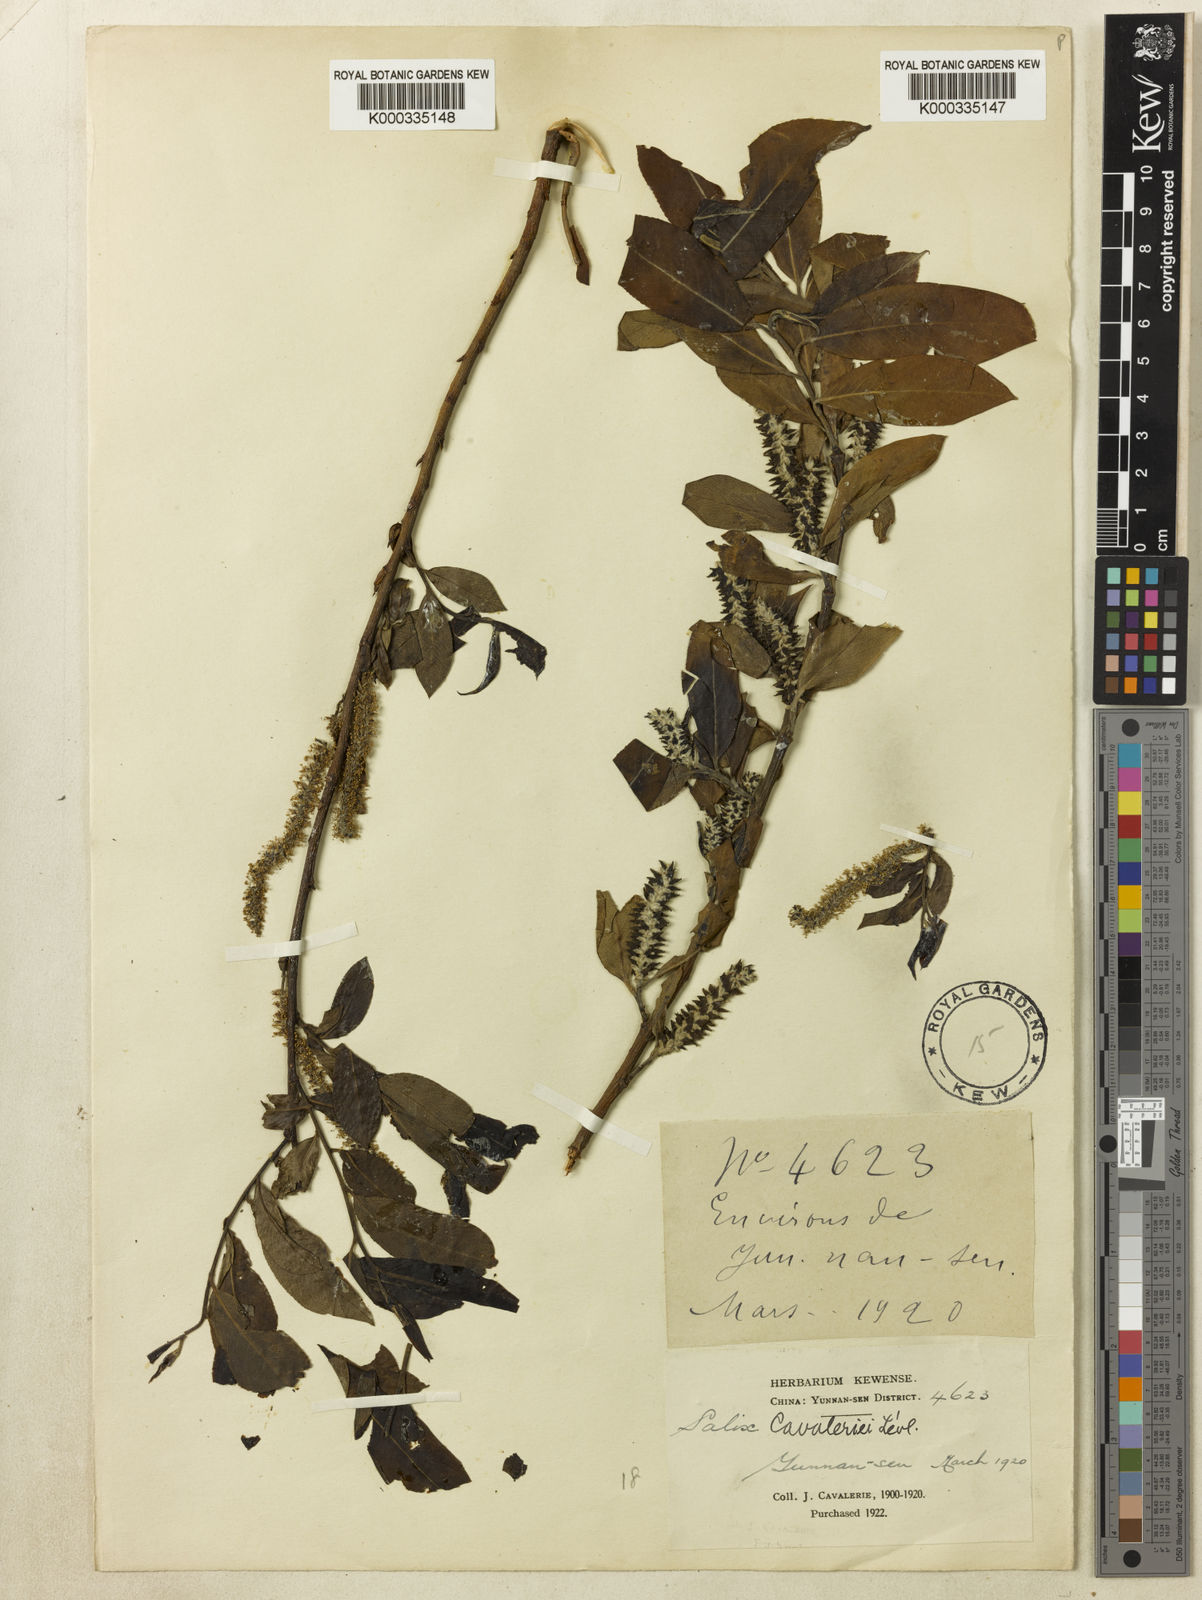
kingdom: Plantae
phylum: Tracheophyta
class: Magnoliopsida
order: Malpighiales
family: Salicaceae
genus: Salix
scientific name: Salix
